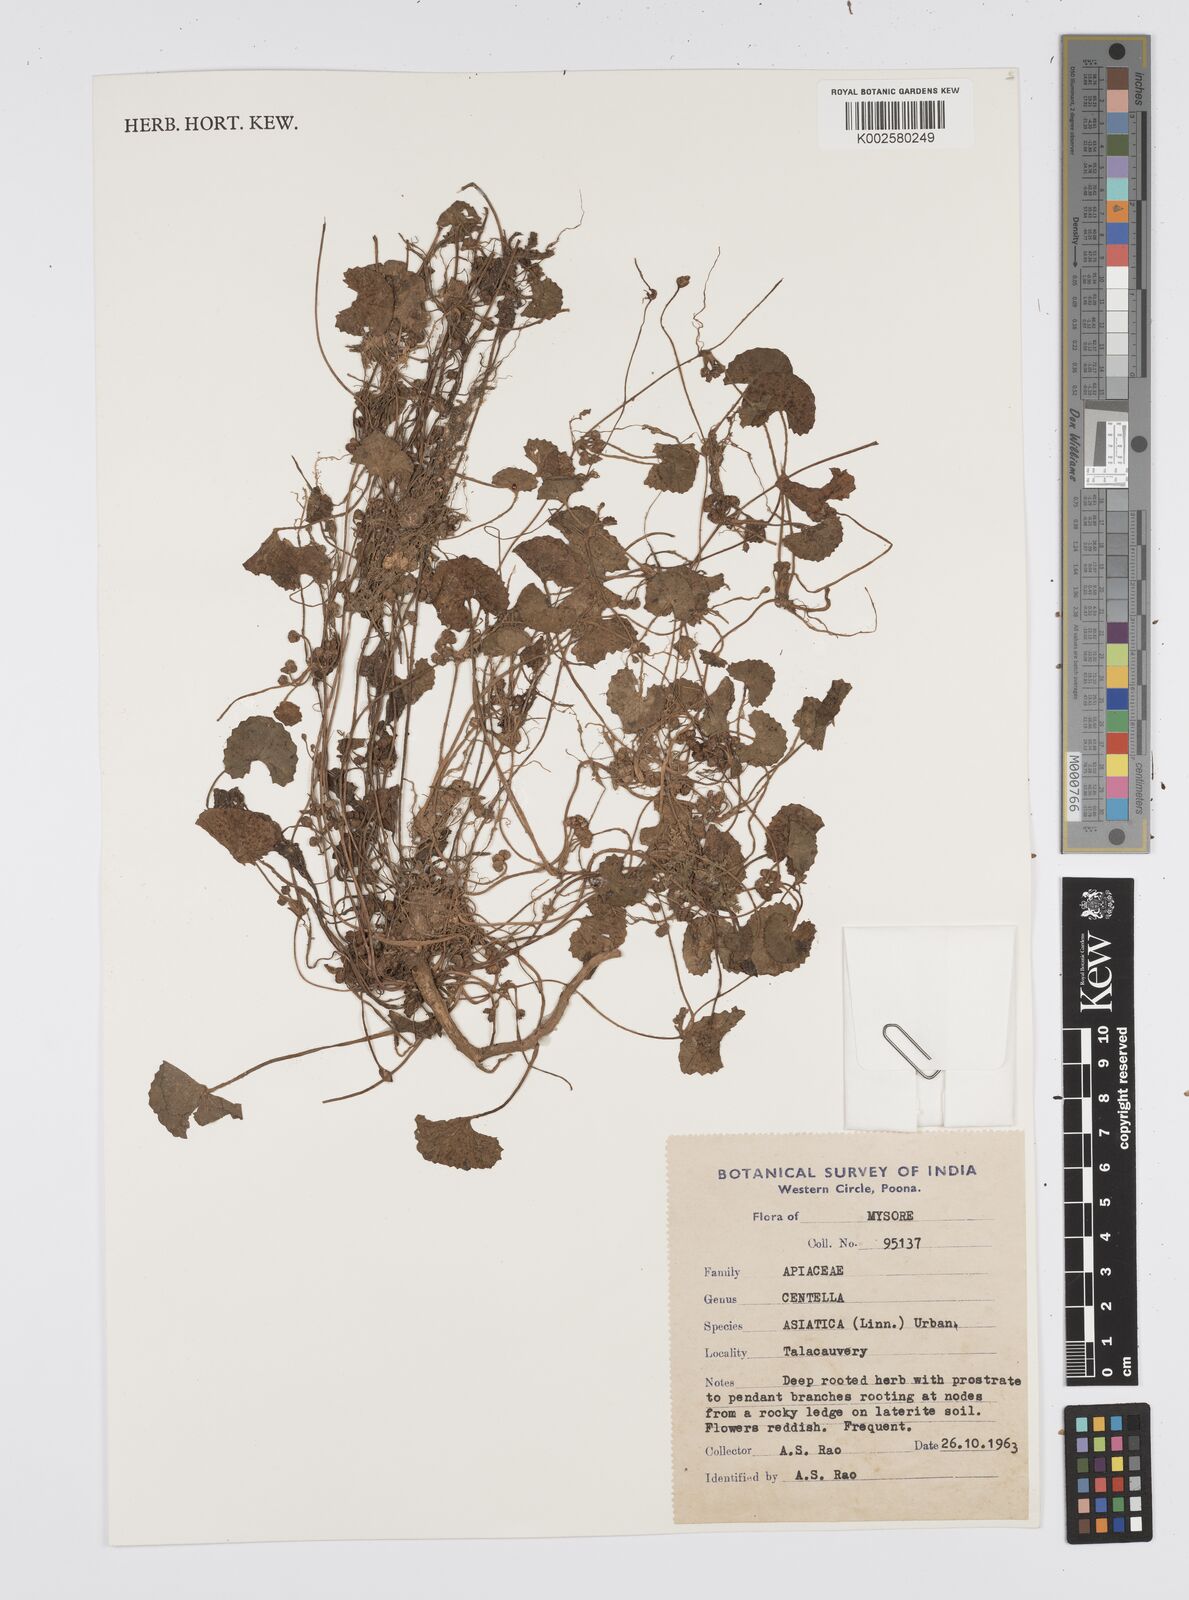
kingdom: Plantae
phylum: Tracheophyta
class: Magnoliopsida
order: Apiales
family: Apiaceae
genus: Centella
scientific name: Centella asiatica
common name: Spadeleaf
